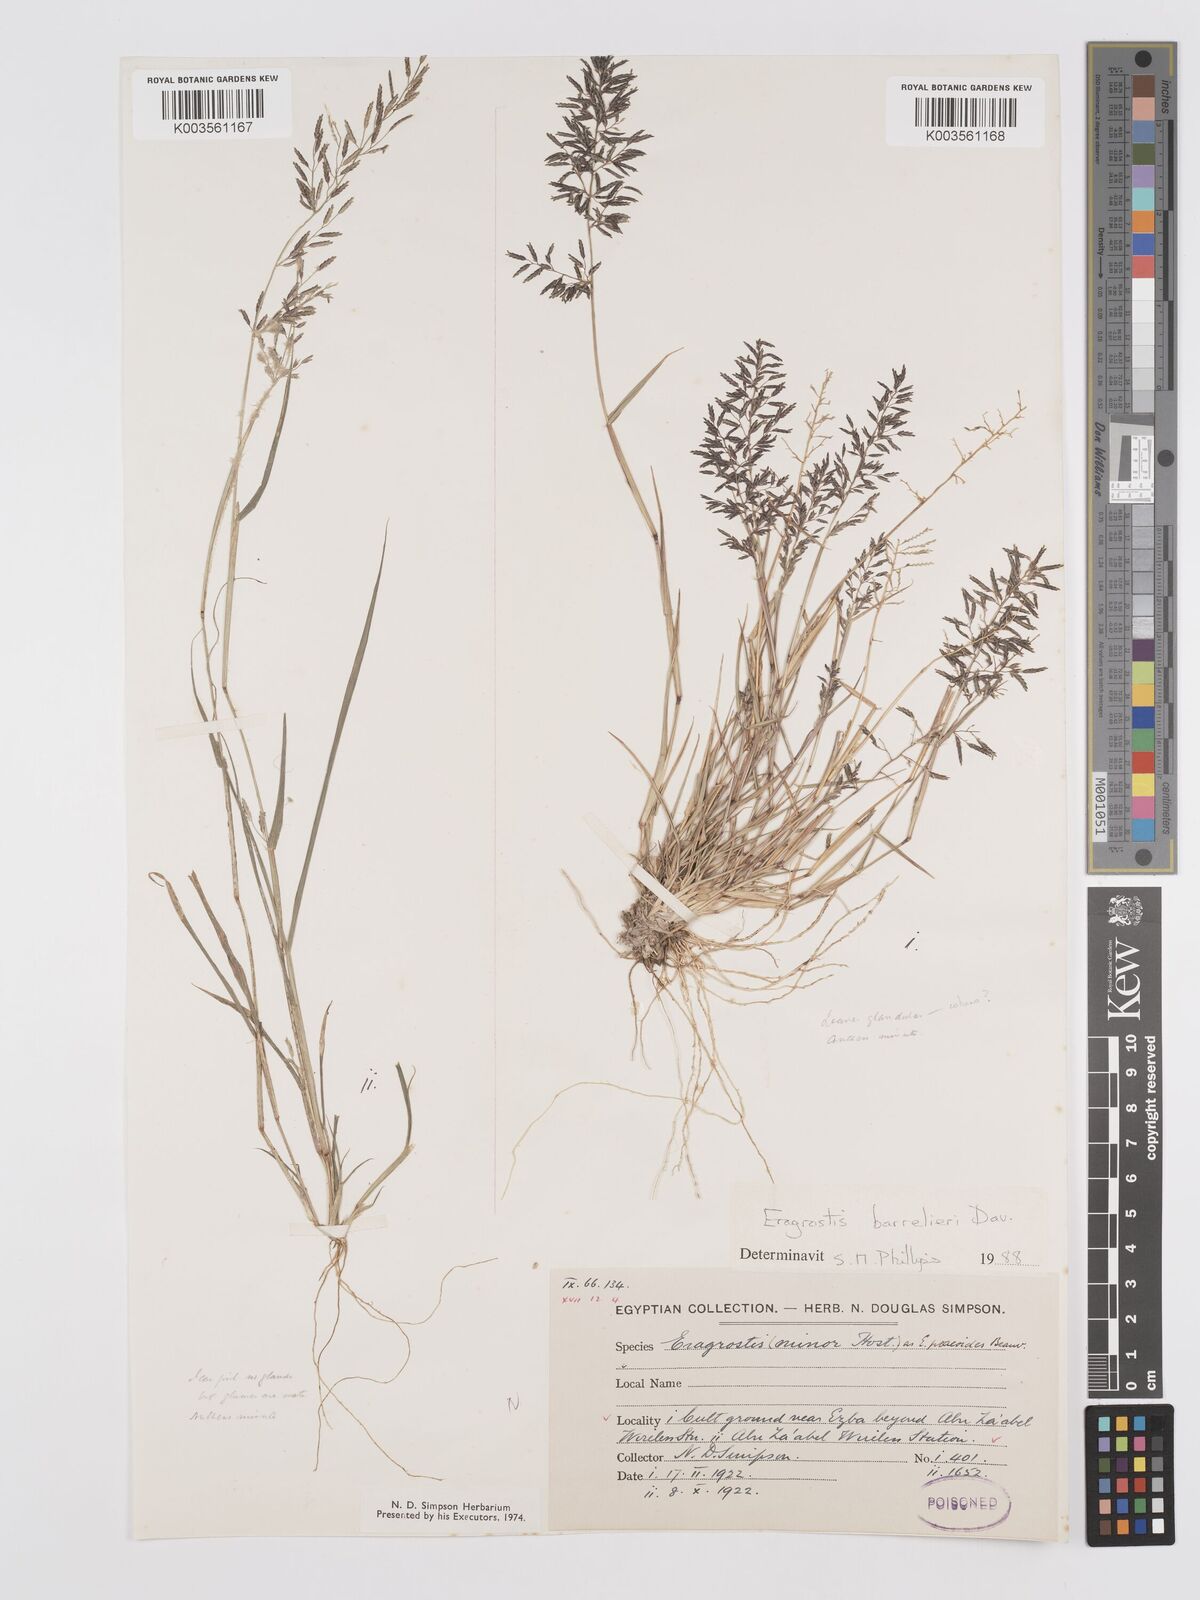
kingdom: Plantae
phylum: Tracheophyta
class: Liliopsida
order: Poales
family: Poaceae
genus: Eragrostis
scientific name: Eragrostis barrelieri
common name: Mediterranean lovegrass
